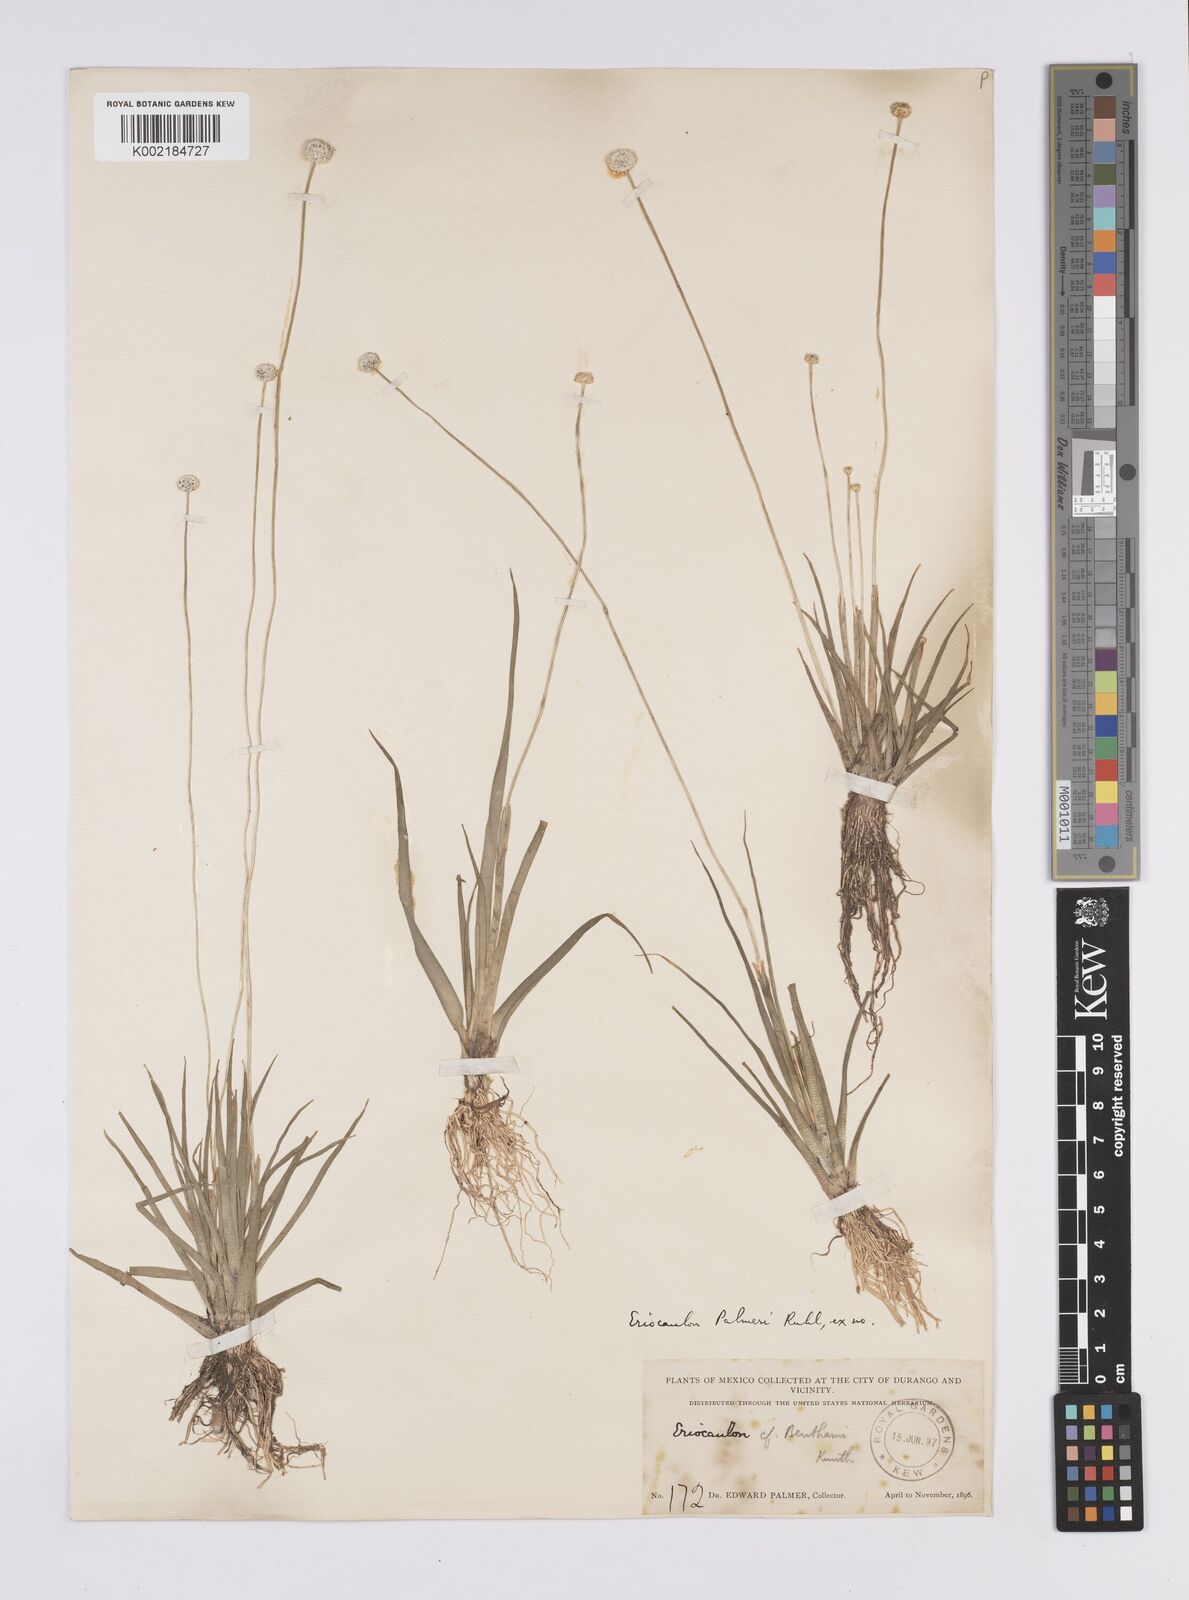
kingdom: Plantae
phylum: Tracheophyta
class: Liliopsida
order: Poales
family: Eriocaulaceae
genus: Eriocaulon
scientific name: Eriocaulon benthamii
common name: Bentham's pipewort
